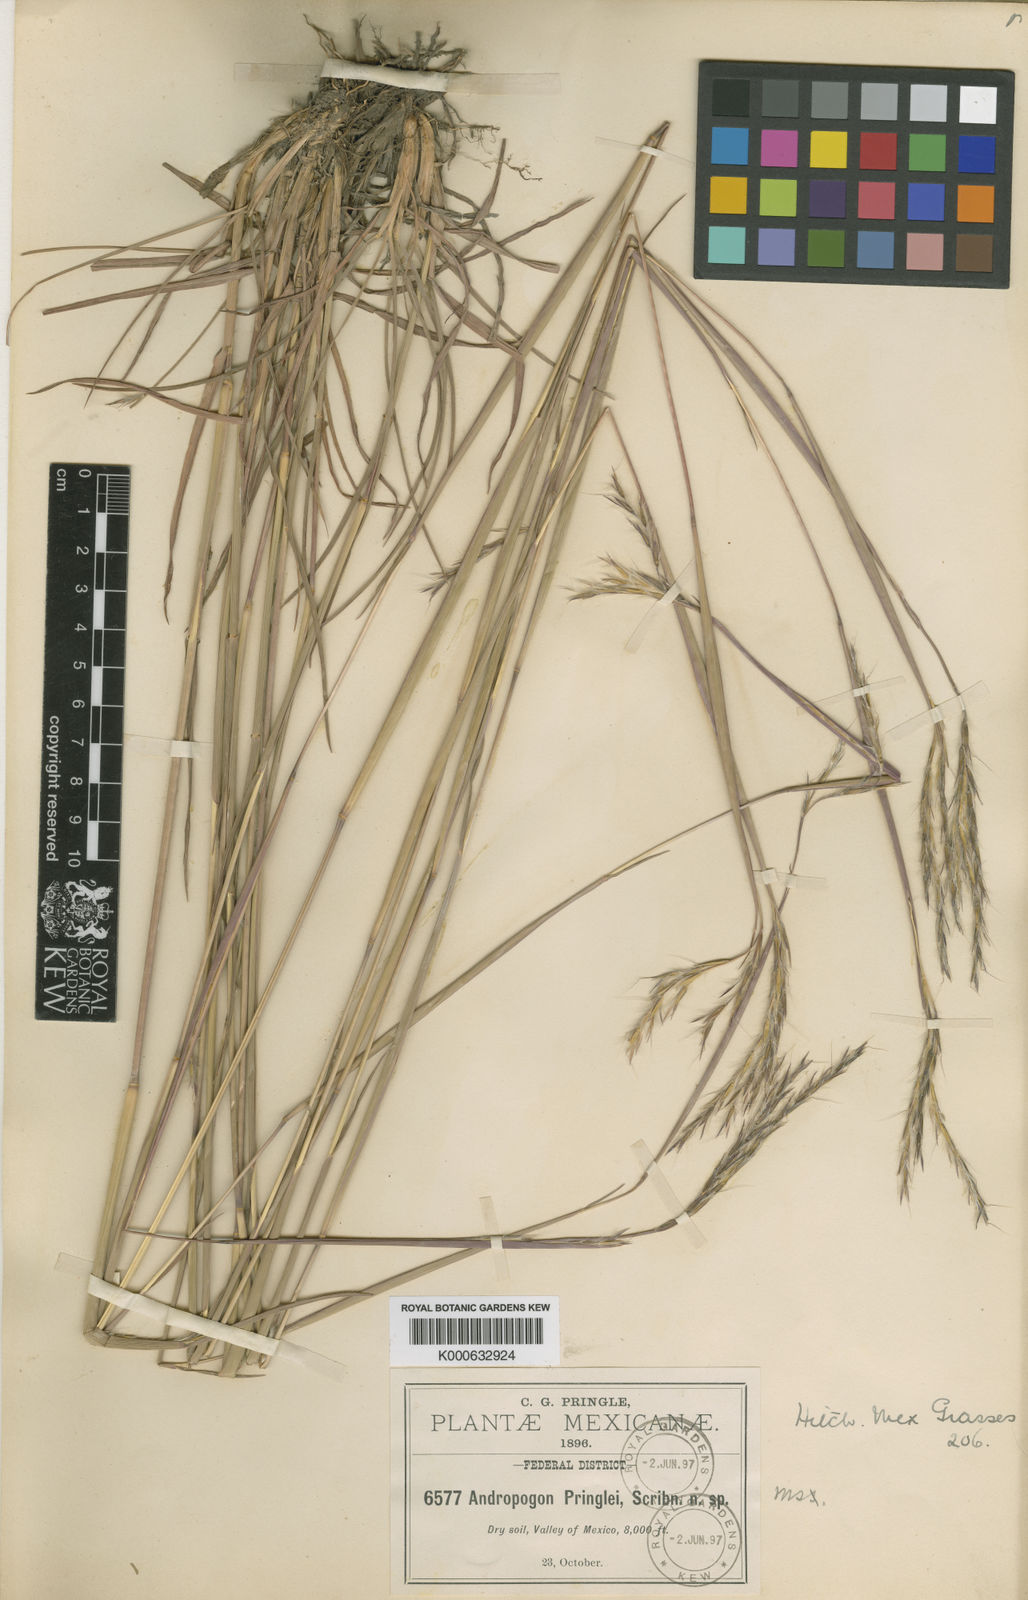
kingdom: Plantae
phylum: Tracheophyta
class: Liliopsida
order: Poales
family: Poaceae
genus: Andropogon
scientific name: Andropogon pringlei
